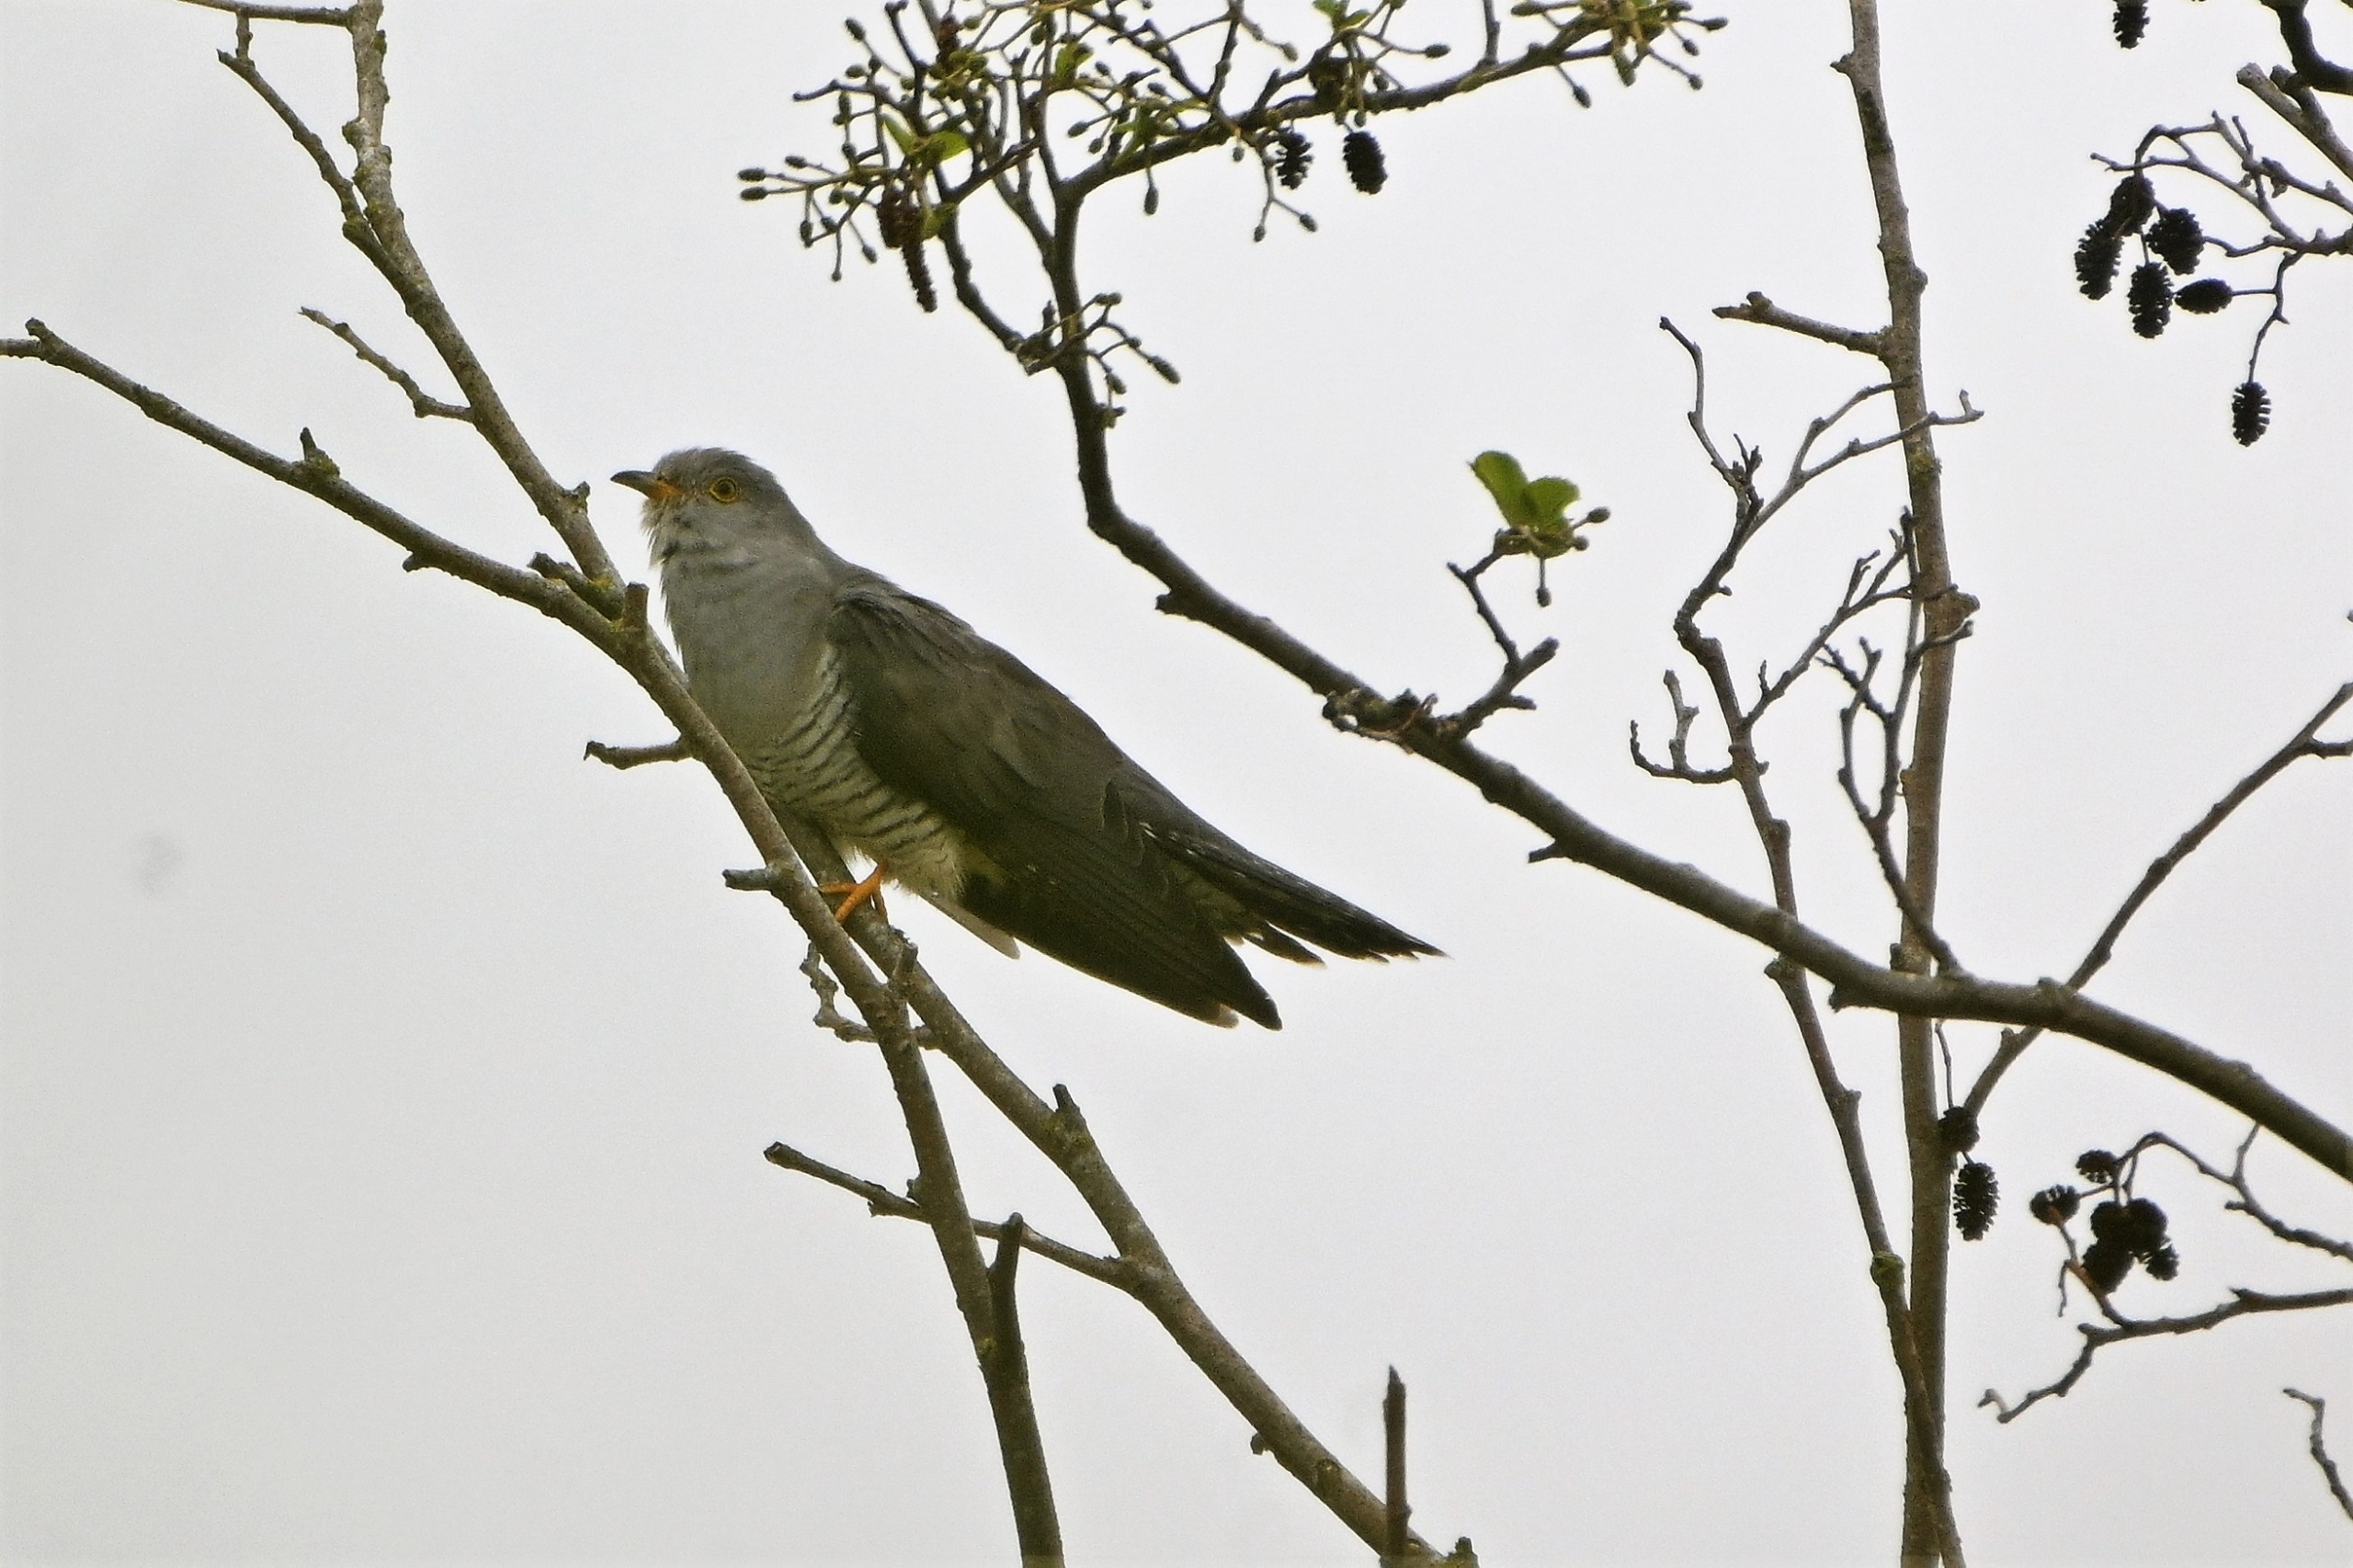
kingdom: Animalia
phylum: Chordata
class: Aves
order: Cuculiformes
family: Cuculidae
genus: Cuculus
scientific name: Cuculus canorus
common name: Gøg
